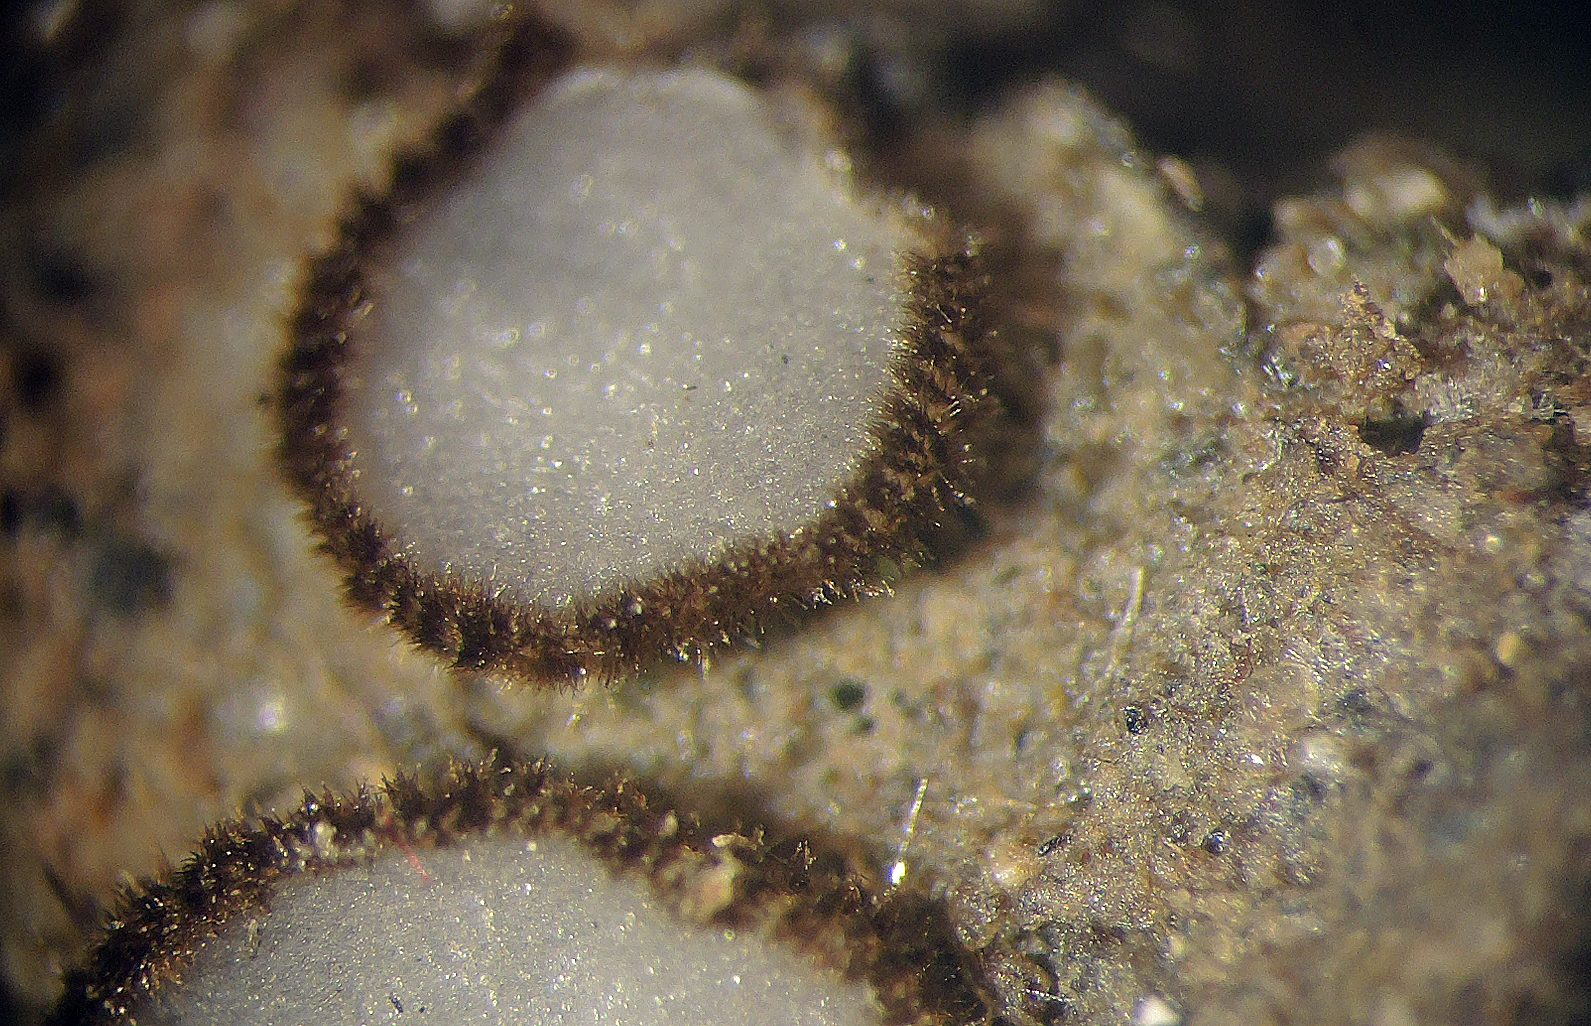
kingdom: Fungi
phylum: Ascomycota
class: Pezizomycetes
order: Pezizales
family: Pyronemataceae
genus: Trichophaea
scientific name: Trichophaea
